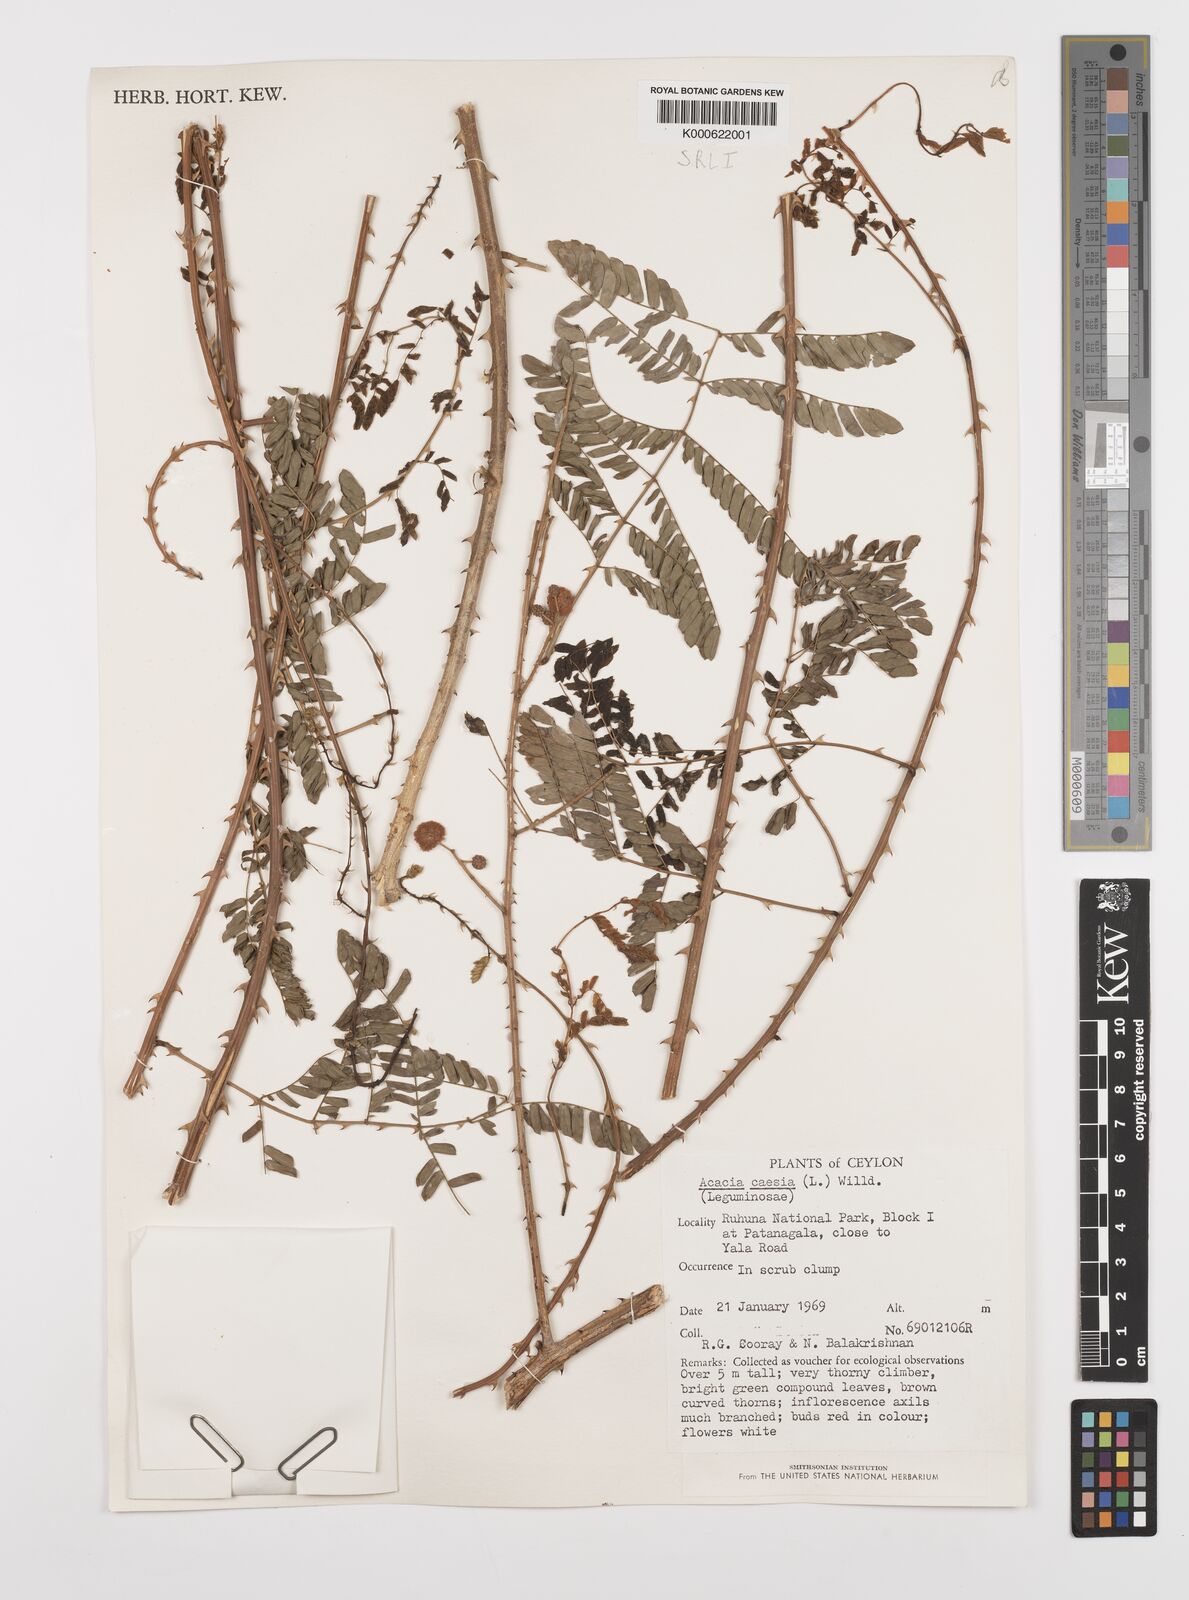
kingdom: Plantae
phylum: Tracheophyta
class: Magnoliopsida
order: Fabales
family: Fabaceae
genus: Senegalia
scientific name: Senegalia caesia
